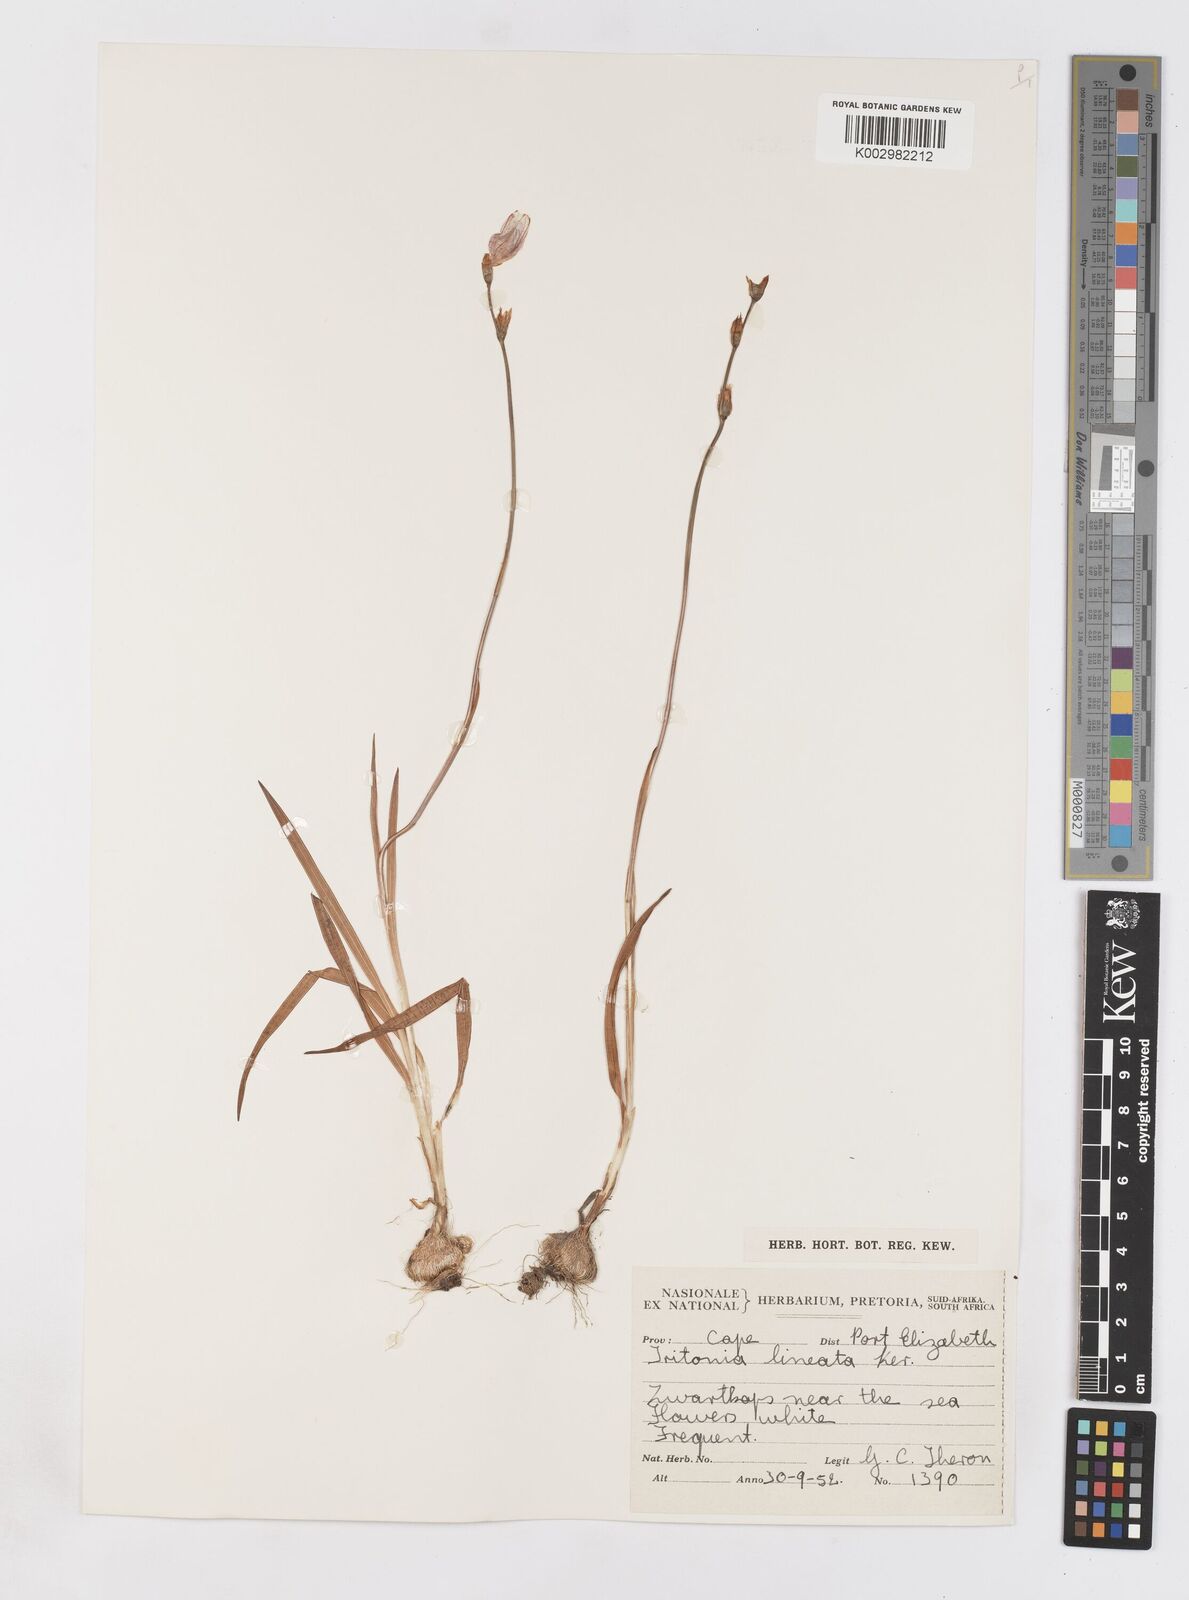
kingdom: Plantae
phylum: Tracheophyta
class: Liliopsida
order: Asparagales
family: Iridaceae
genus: Tritonia
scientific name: Tritonia gladiolaris
